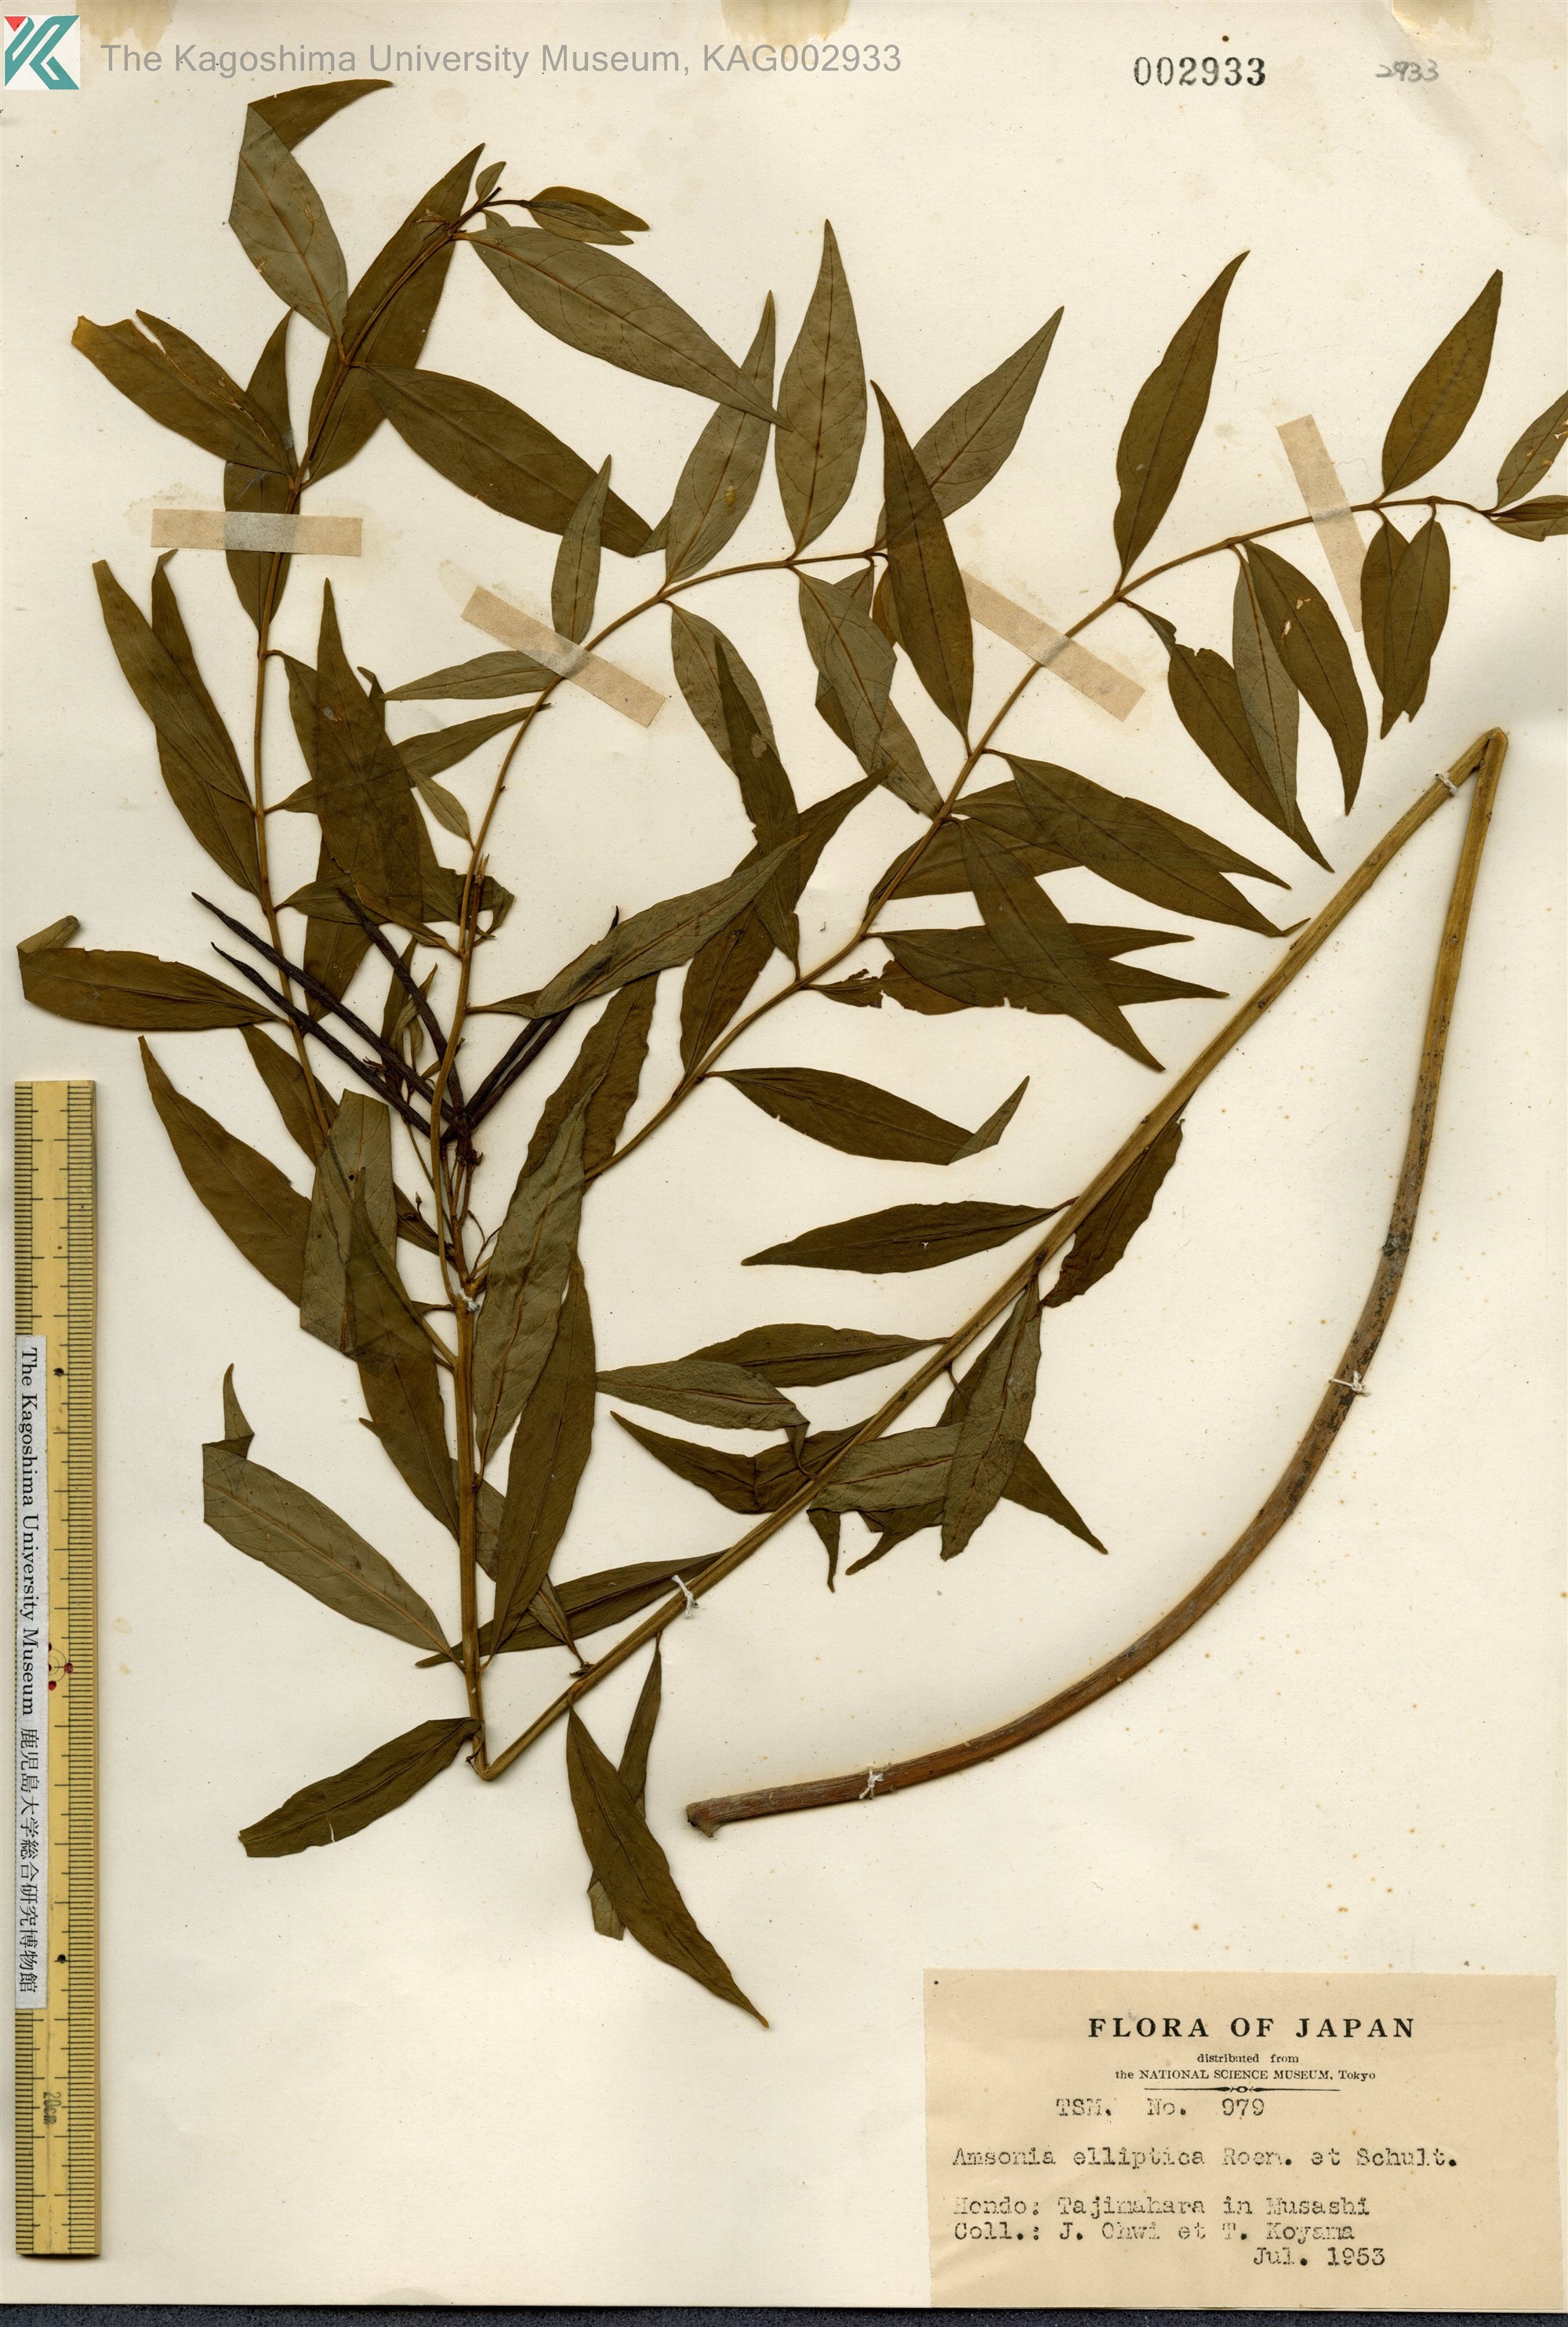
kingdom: Plantae
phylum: Tracheophyta
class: Magnoliopsida
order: Gentianales
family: Apocynaceae
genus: Amsonia
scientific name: Amsonia elliptica
